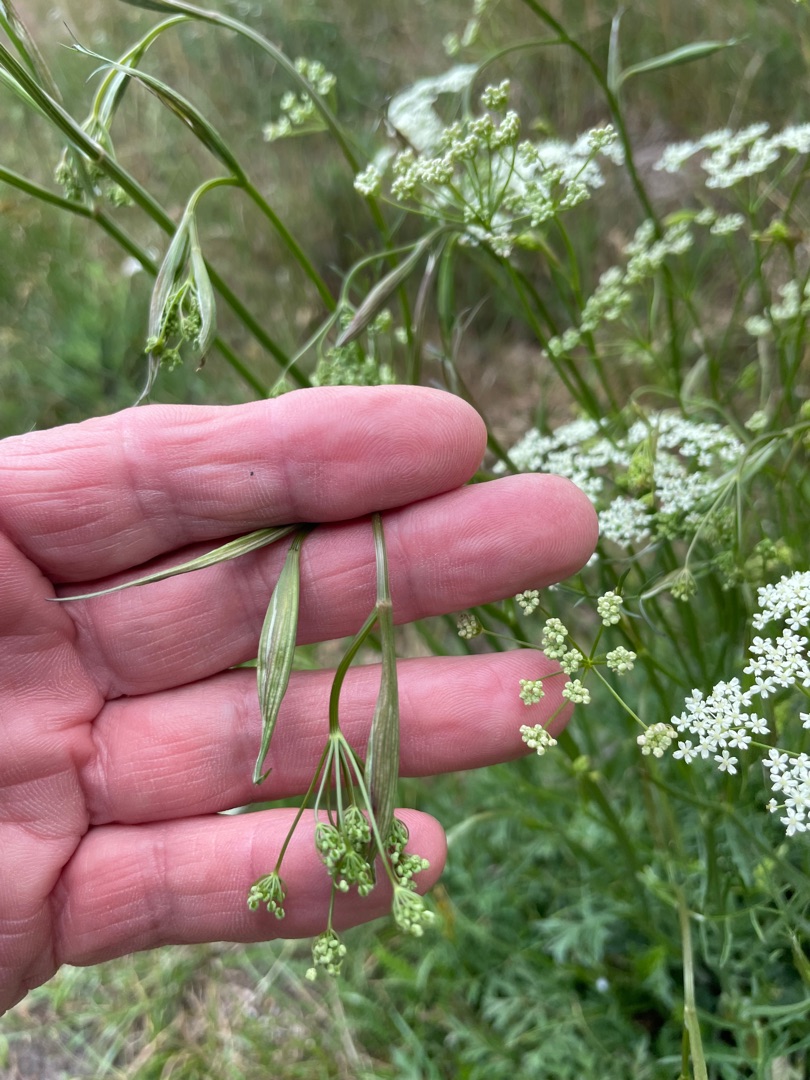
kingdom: Plantae
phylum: Tracheophyta
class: Magnoliopsida
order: Apiales
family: Apiaceae
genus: Pimpinella
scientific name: Pimpinella saxifraga
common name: Almindelig pimpinelle
